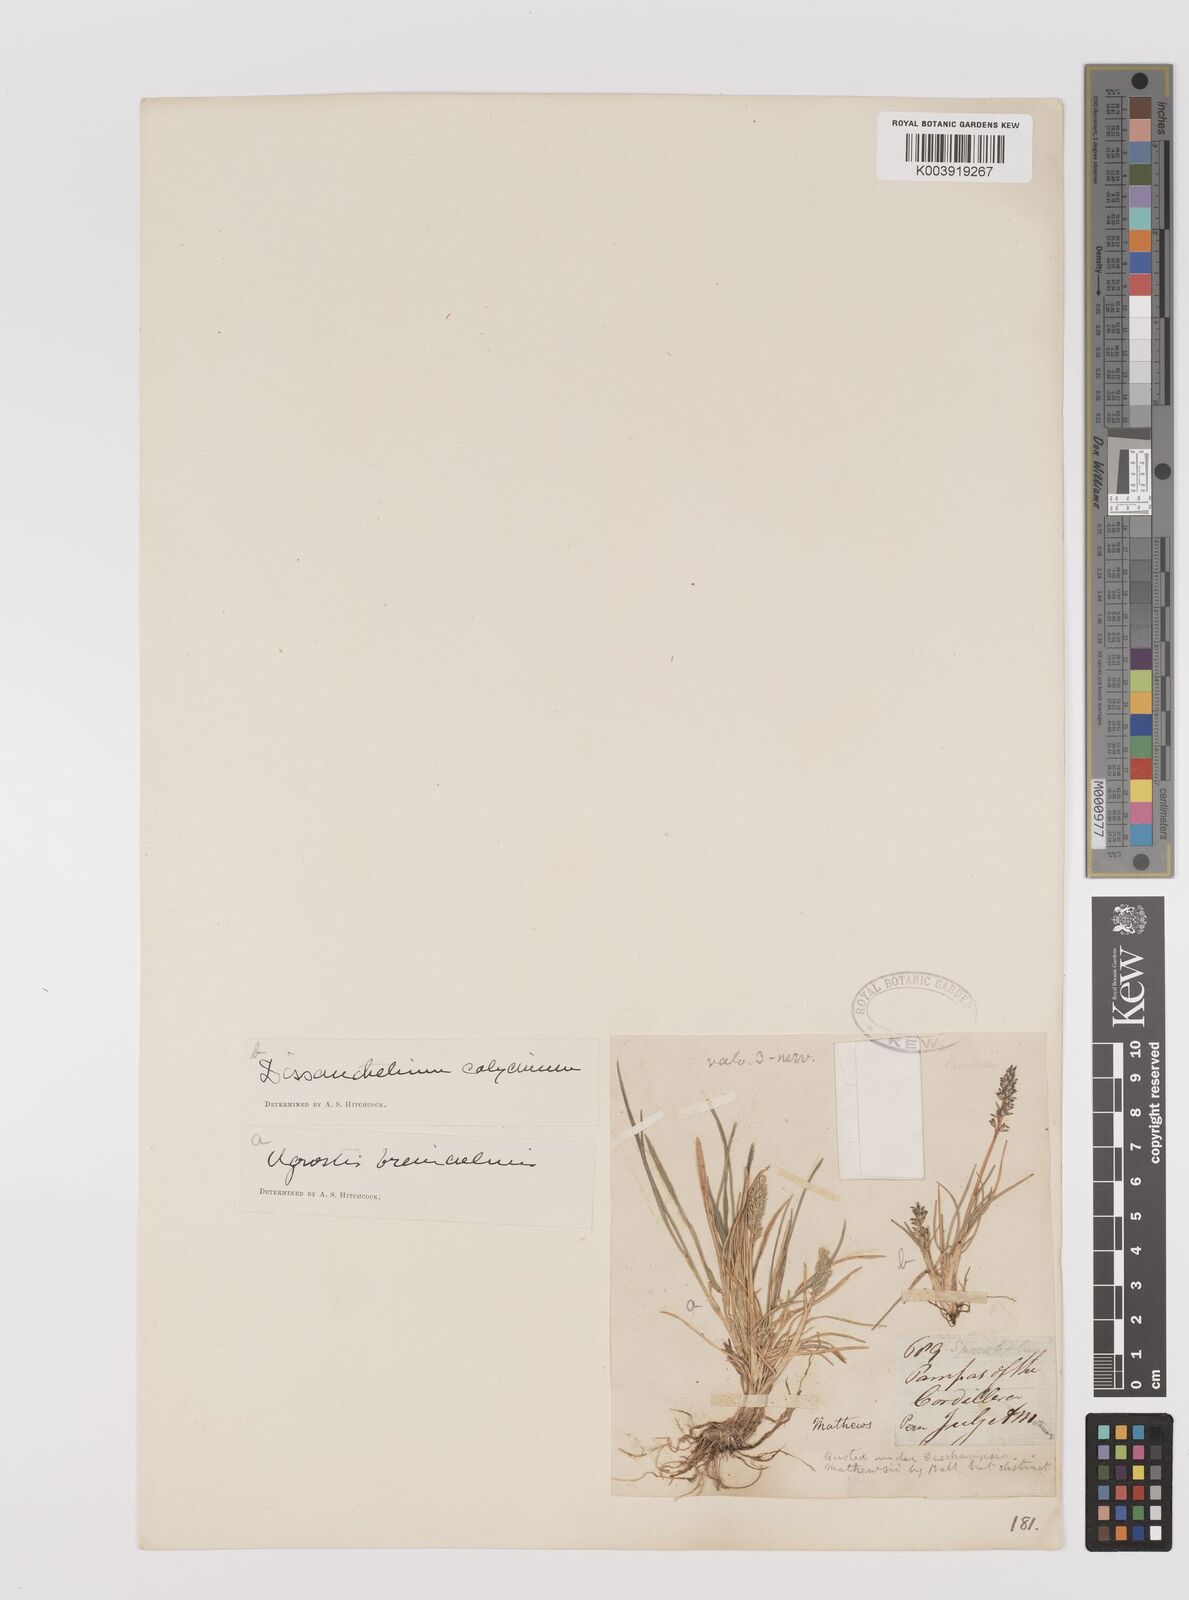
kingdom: Plantae
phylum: Tracheophyta
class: Liliopsida
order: Poales
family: Poaceae
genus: Poa
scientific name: Poa calycina
